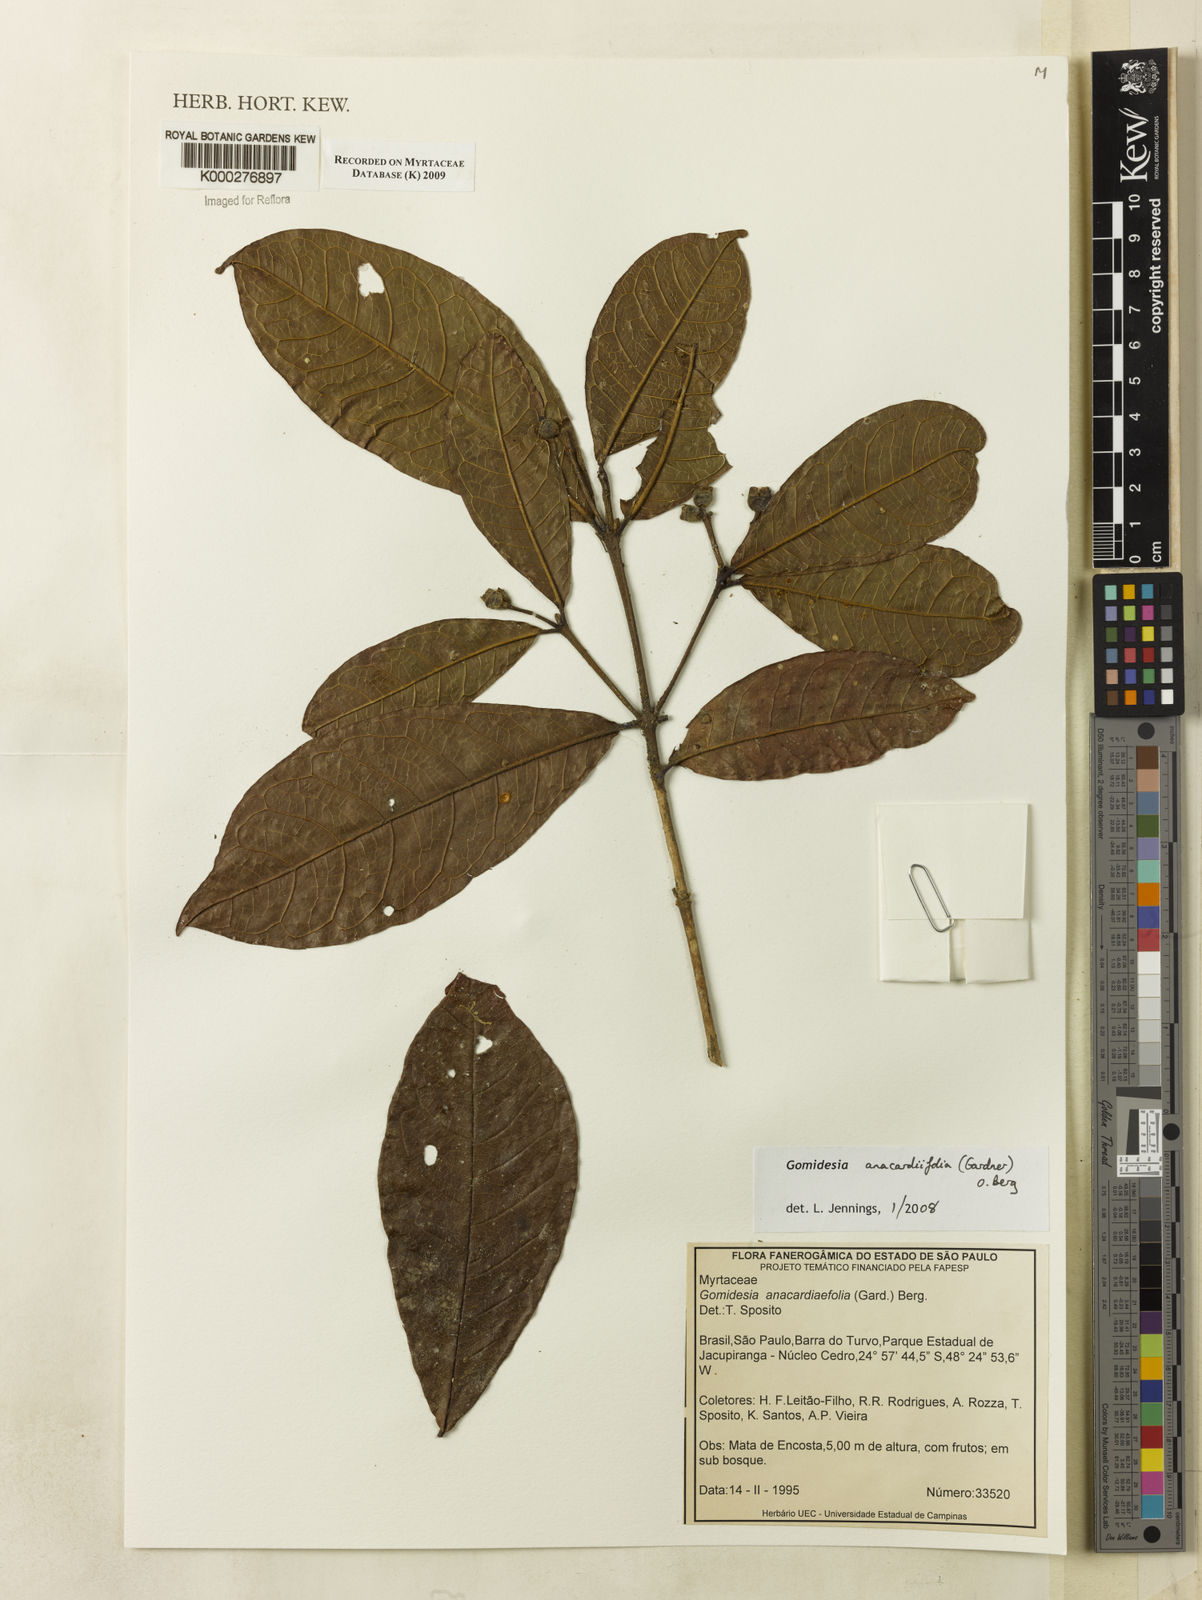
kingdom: Plantae
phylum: Tracheophyta
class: Magnoliopsida
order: Myrtales
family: Myrtaceae
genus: Myrcia
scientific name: Myrcia anacardiifolia
